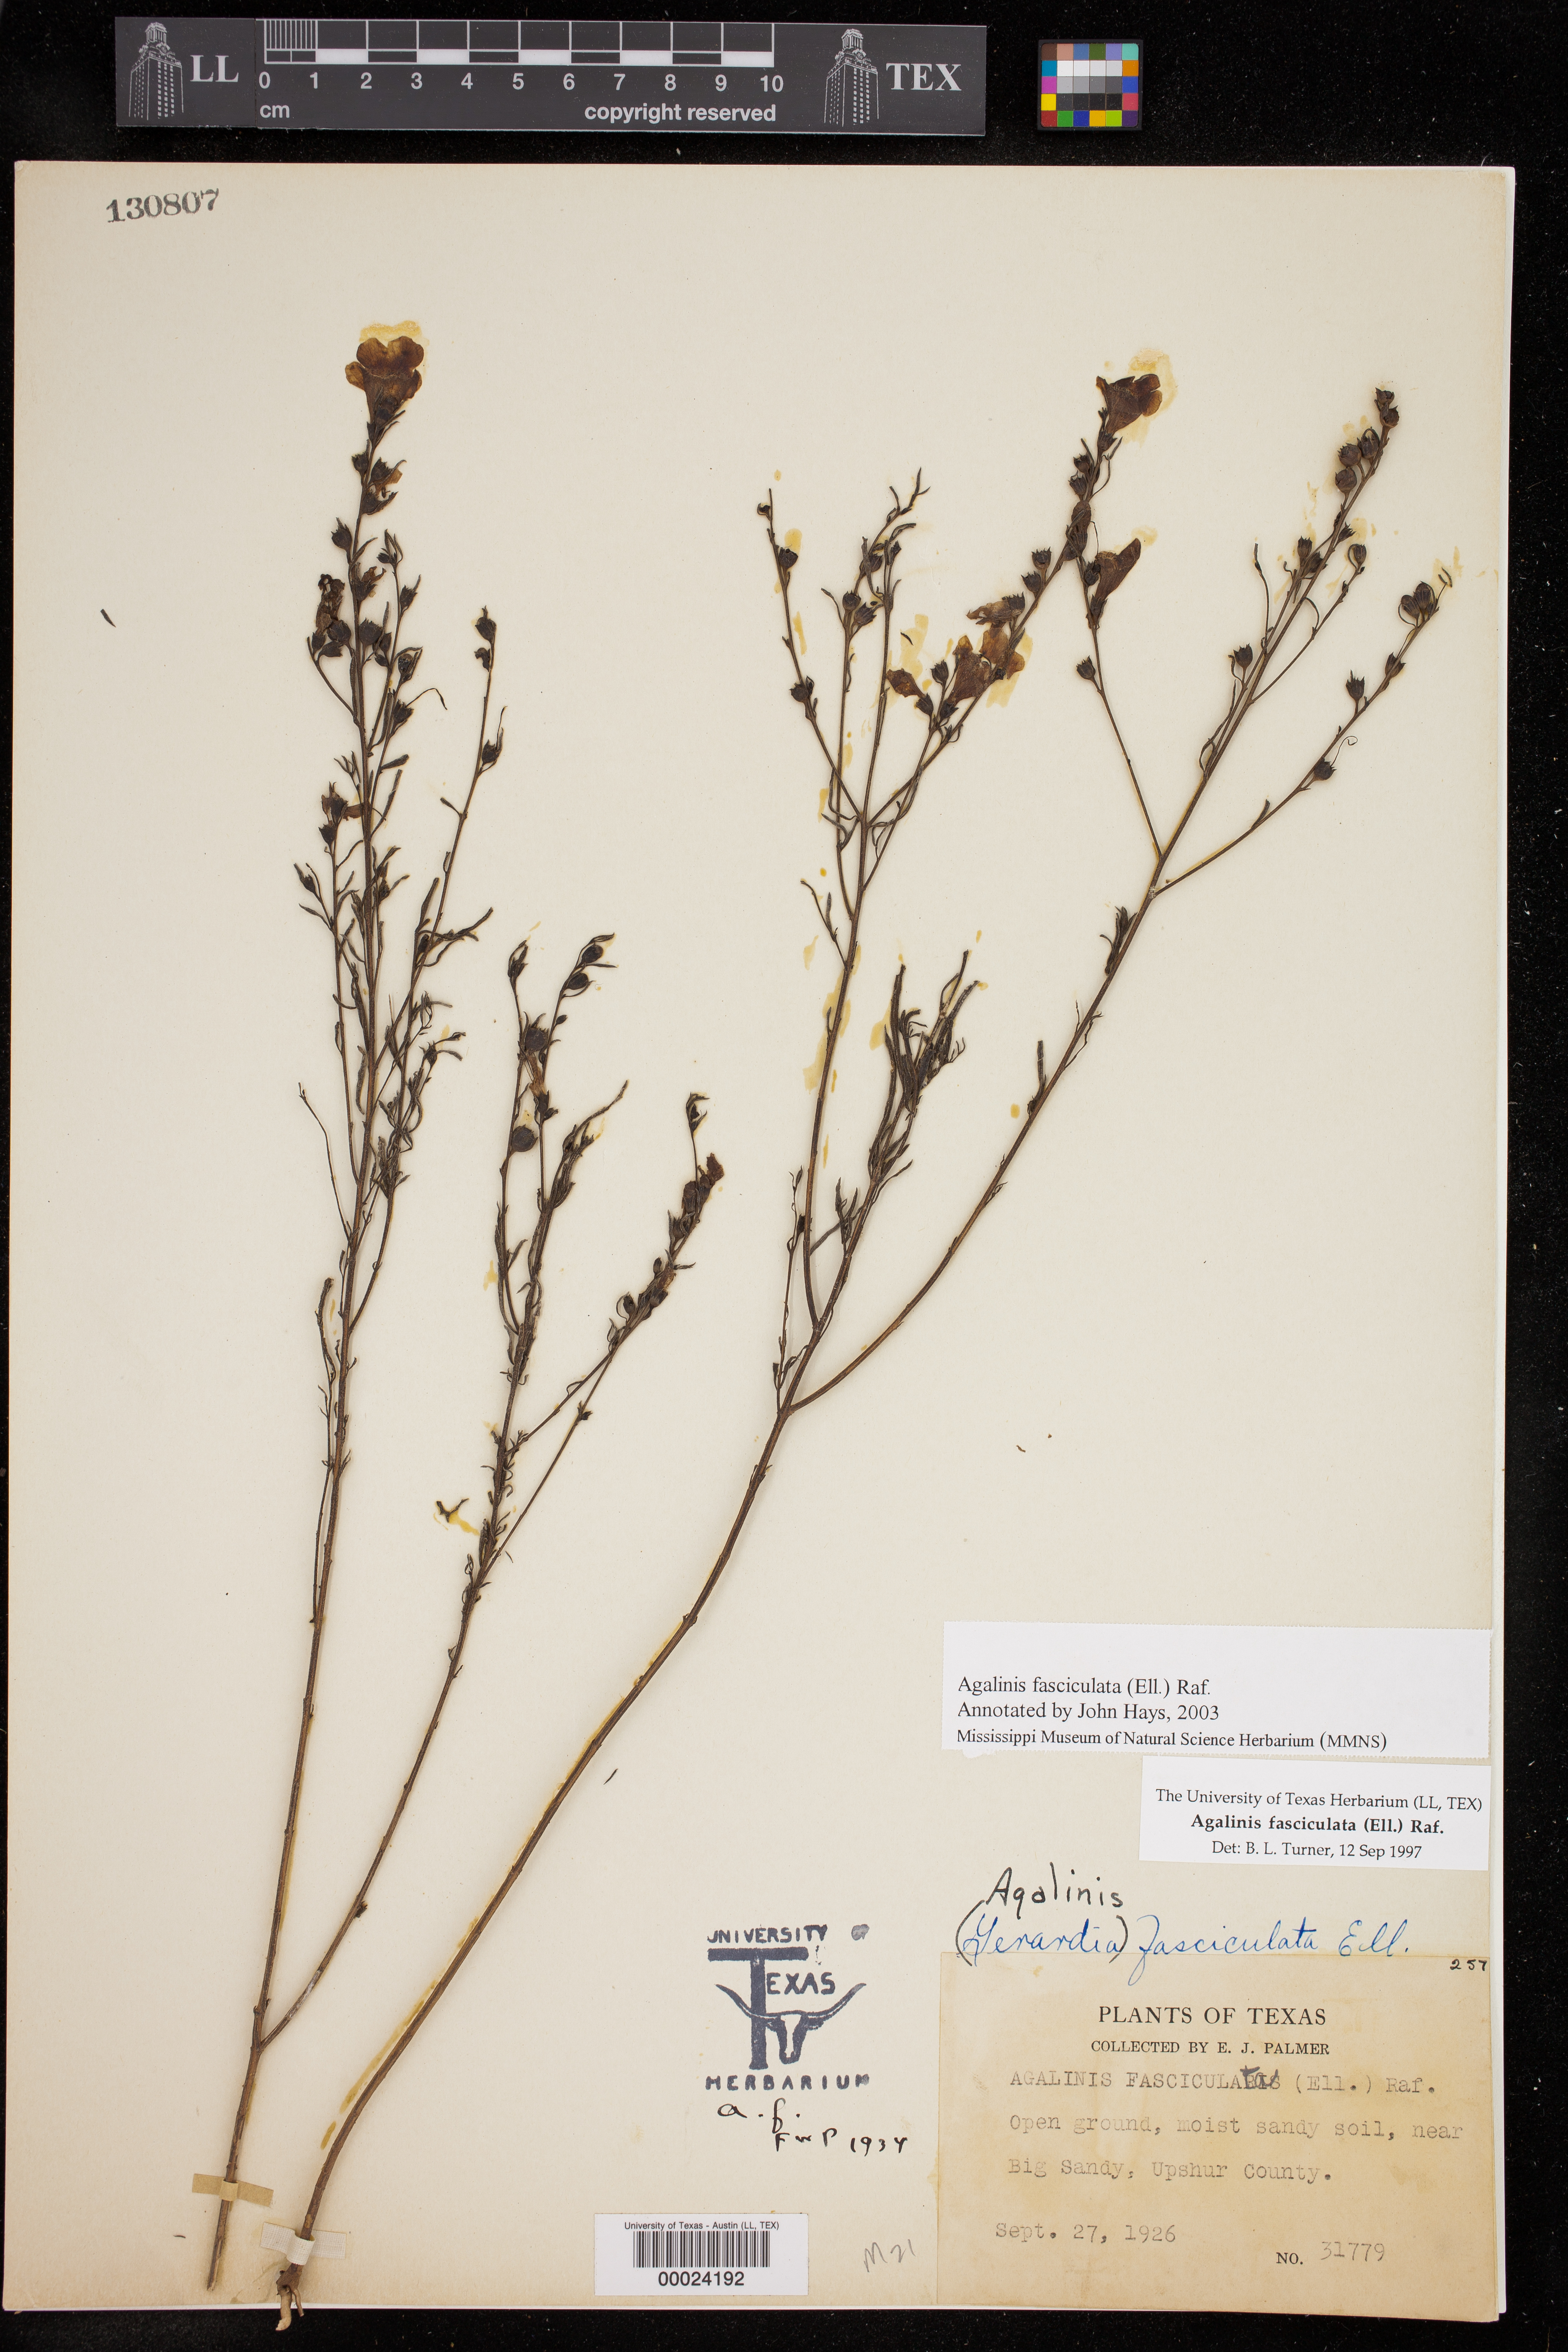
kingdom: Plantae
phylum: Tracheophyta
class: Magnoliopsida
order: Lamiales
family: Orobanchaceae
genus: Agalinis
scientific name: Agalinis fasciculata
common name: Beach false foxglove
